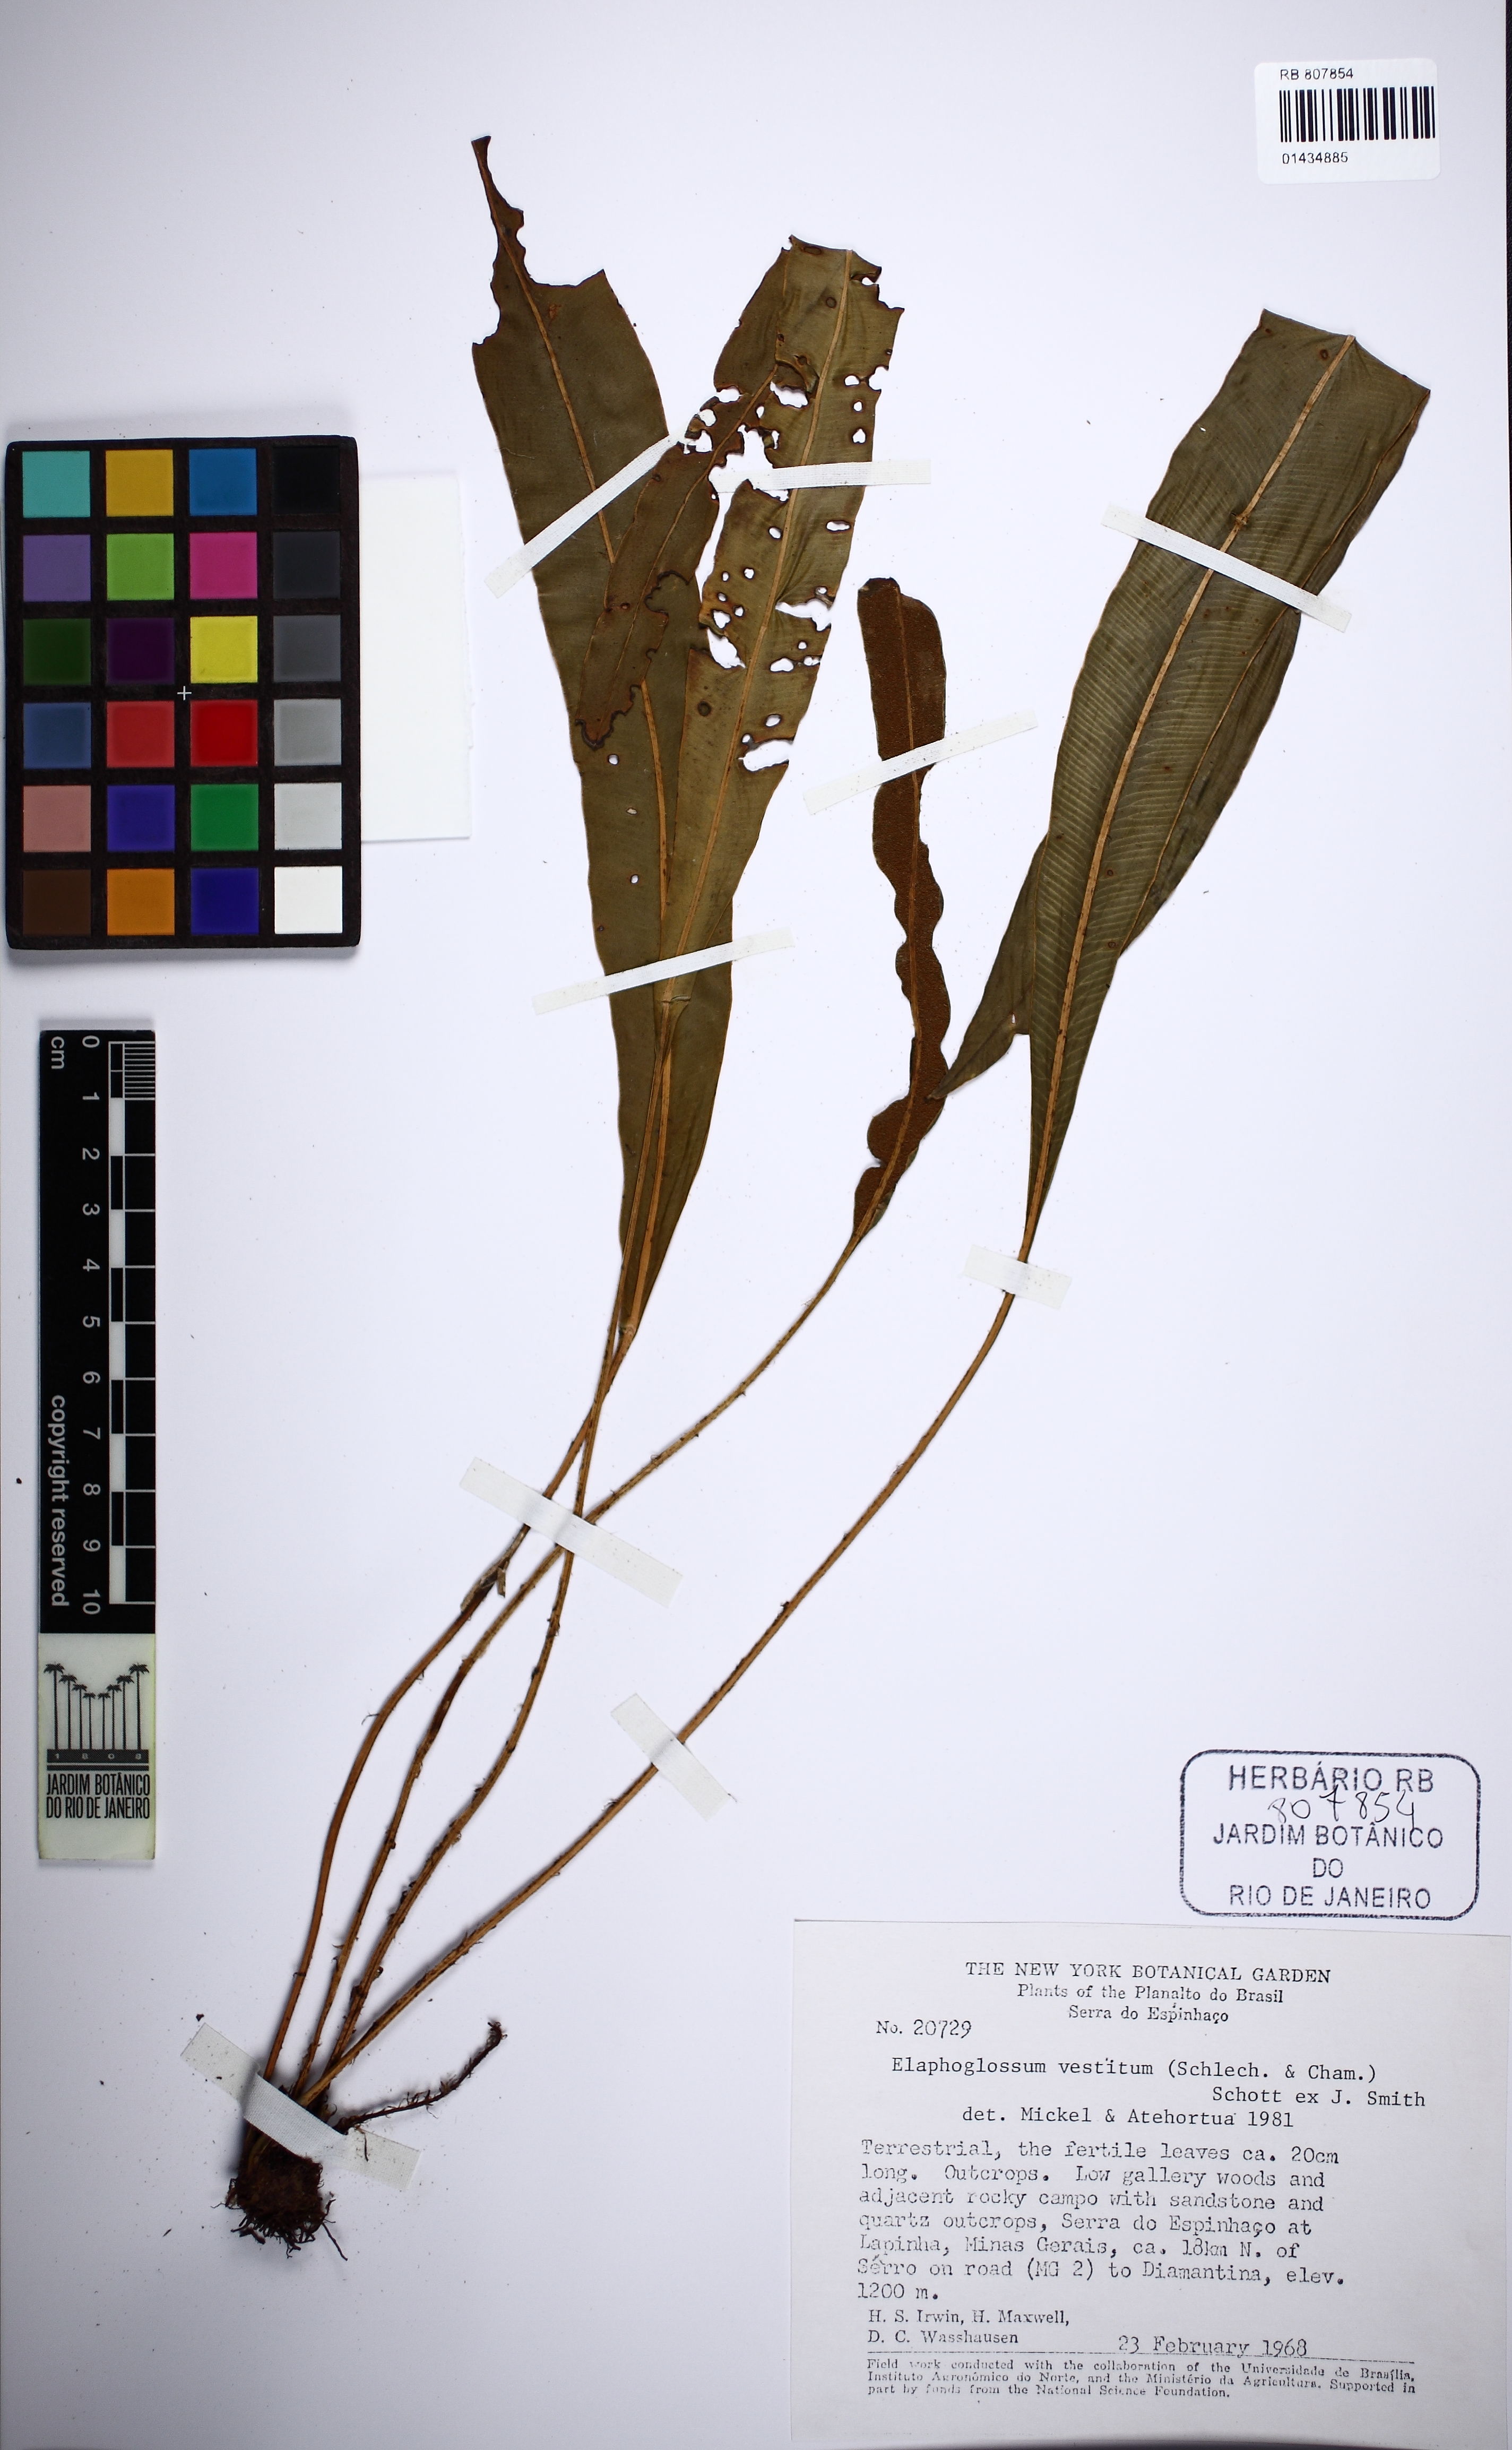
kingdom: Plantae
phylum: Tracheophyta
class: Polypodiopsida
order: Polypodiales
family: Dryopteridaceae
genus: Elaphoglossum
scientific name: Elaphoglossum vestitum
